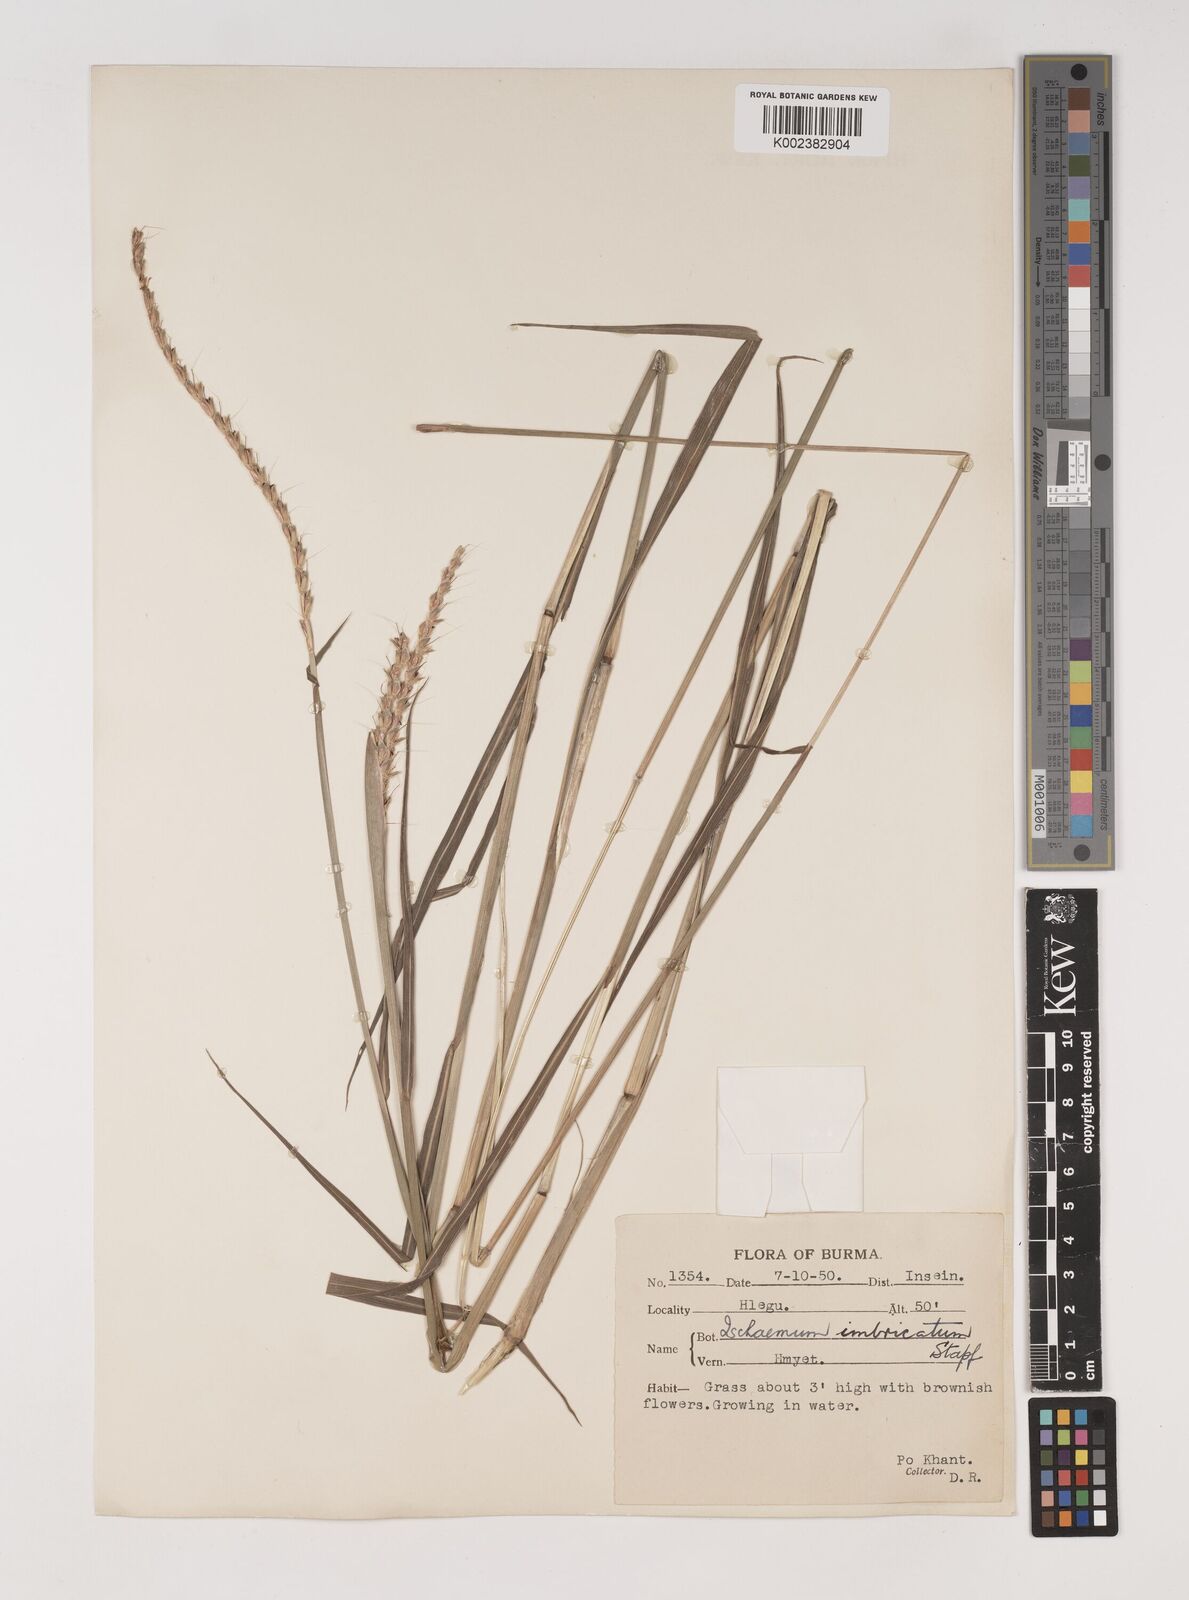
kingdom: Plantae
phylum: Tracheophyta
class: Liliopsida
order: Poales
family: Poaceae
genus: Ischaemum
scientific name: Ischaemum
